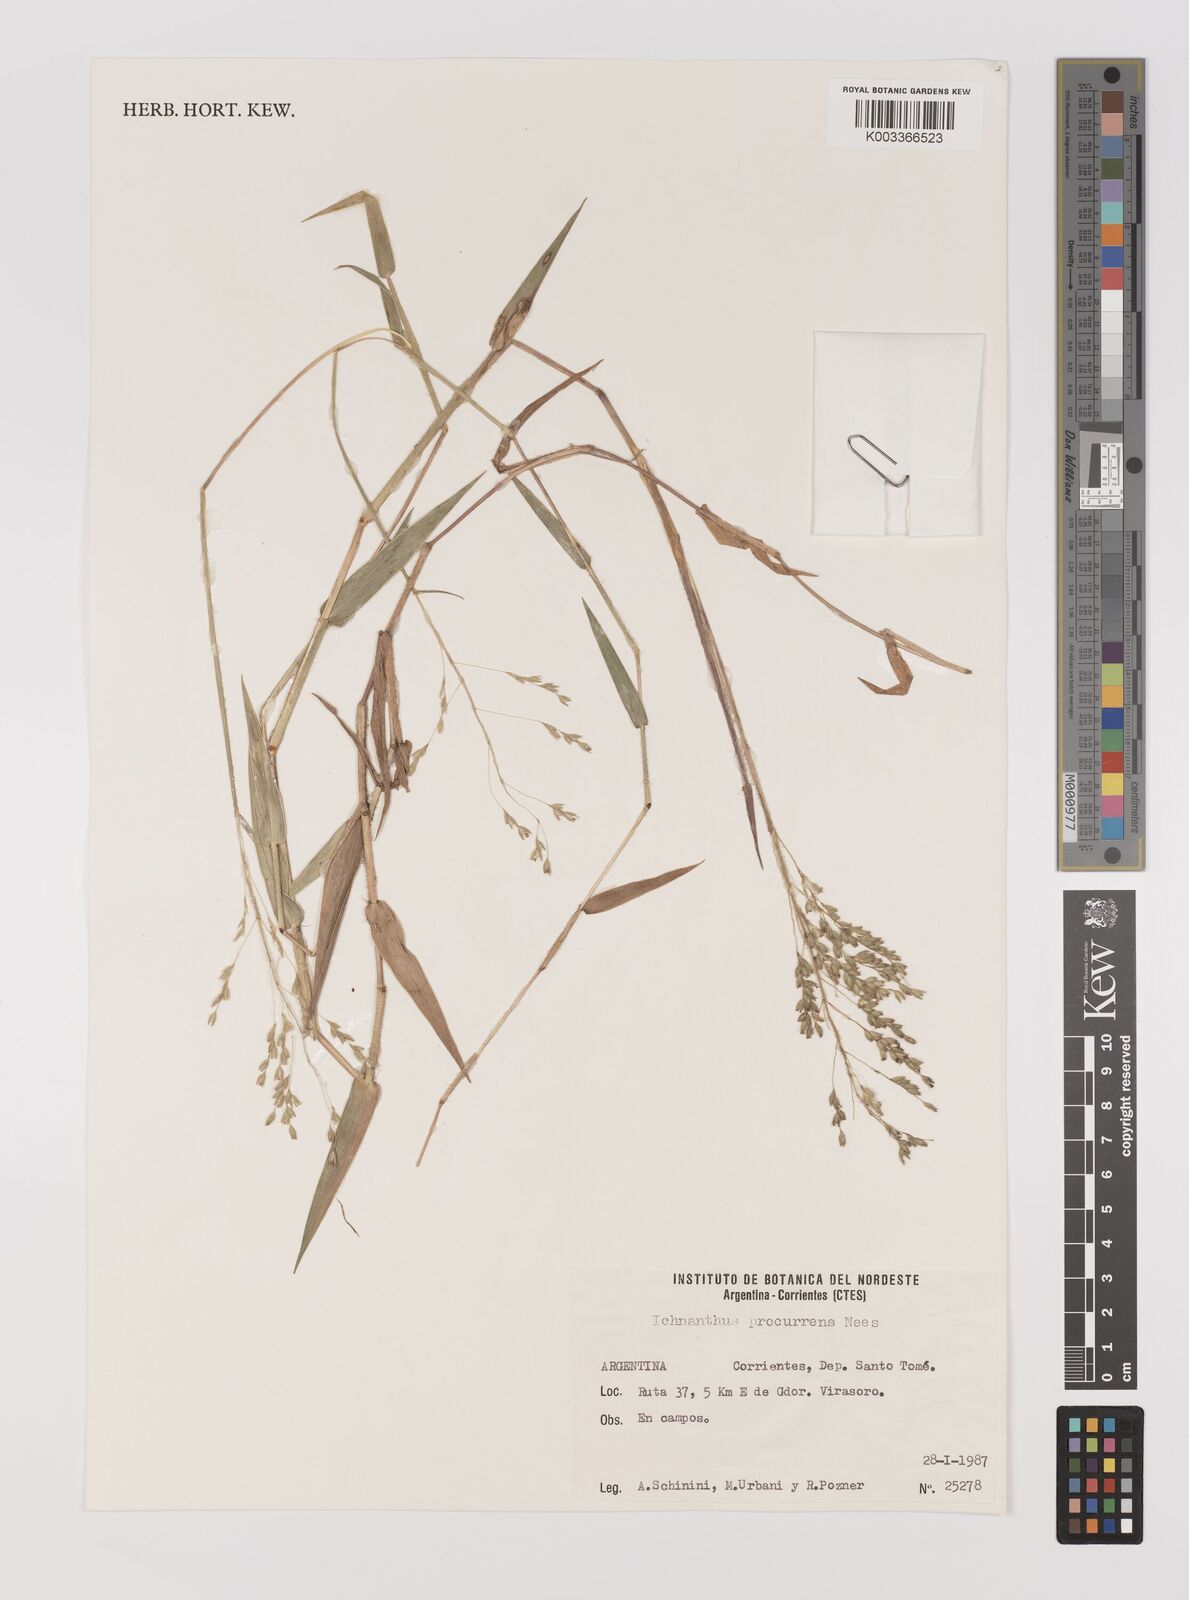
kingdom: Plantae
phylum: Tracheophyta
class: Liliopsida
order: Poales
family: Poaceae
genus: Oedochloa
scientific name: Oedochloa procurrens
